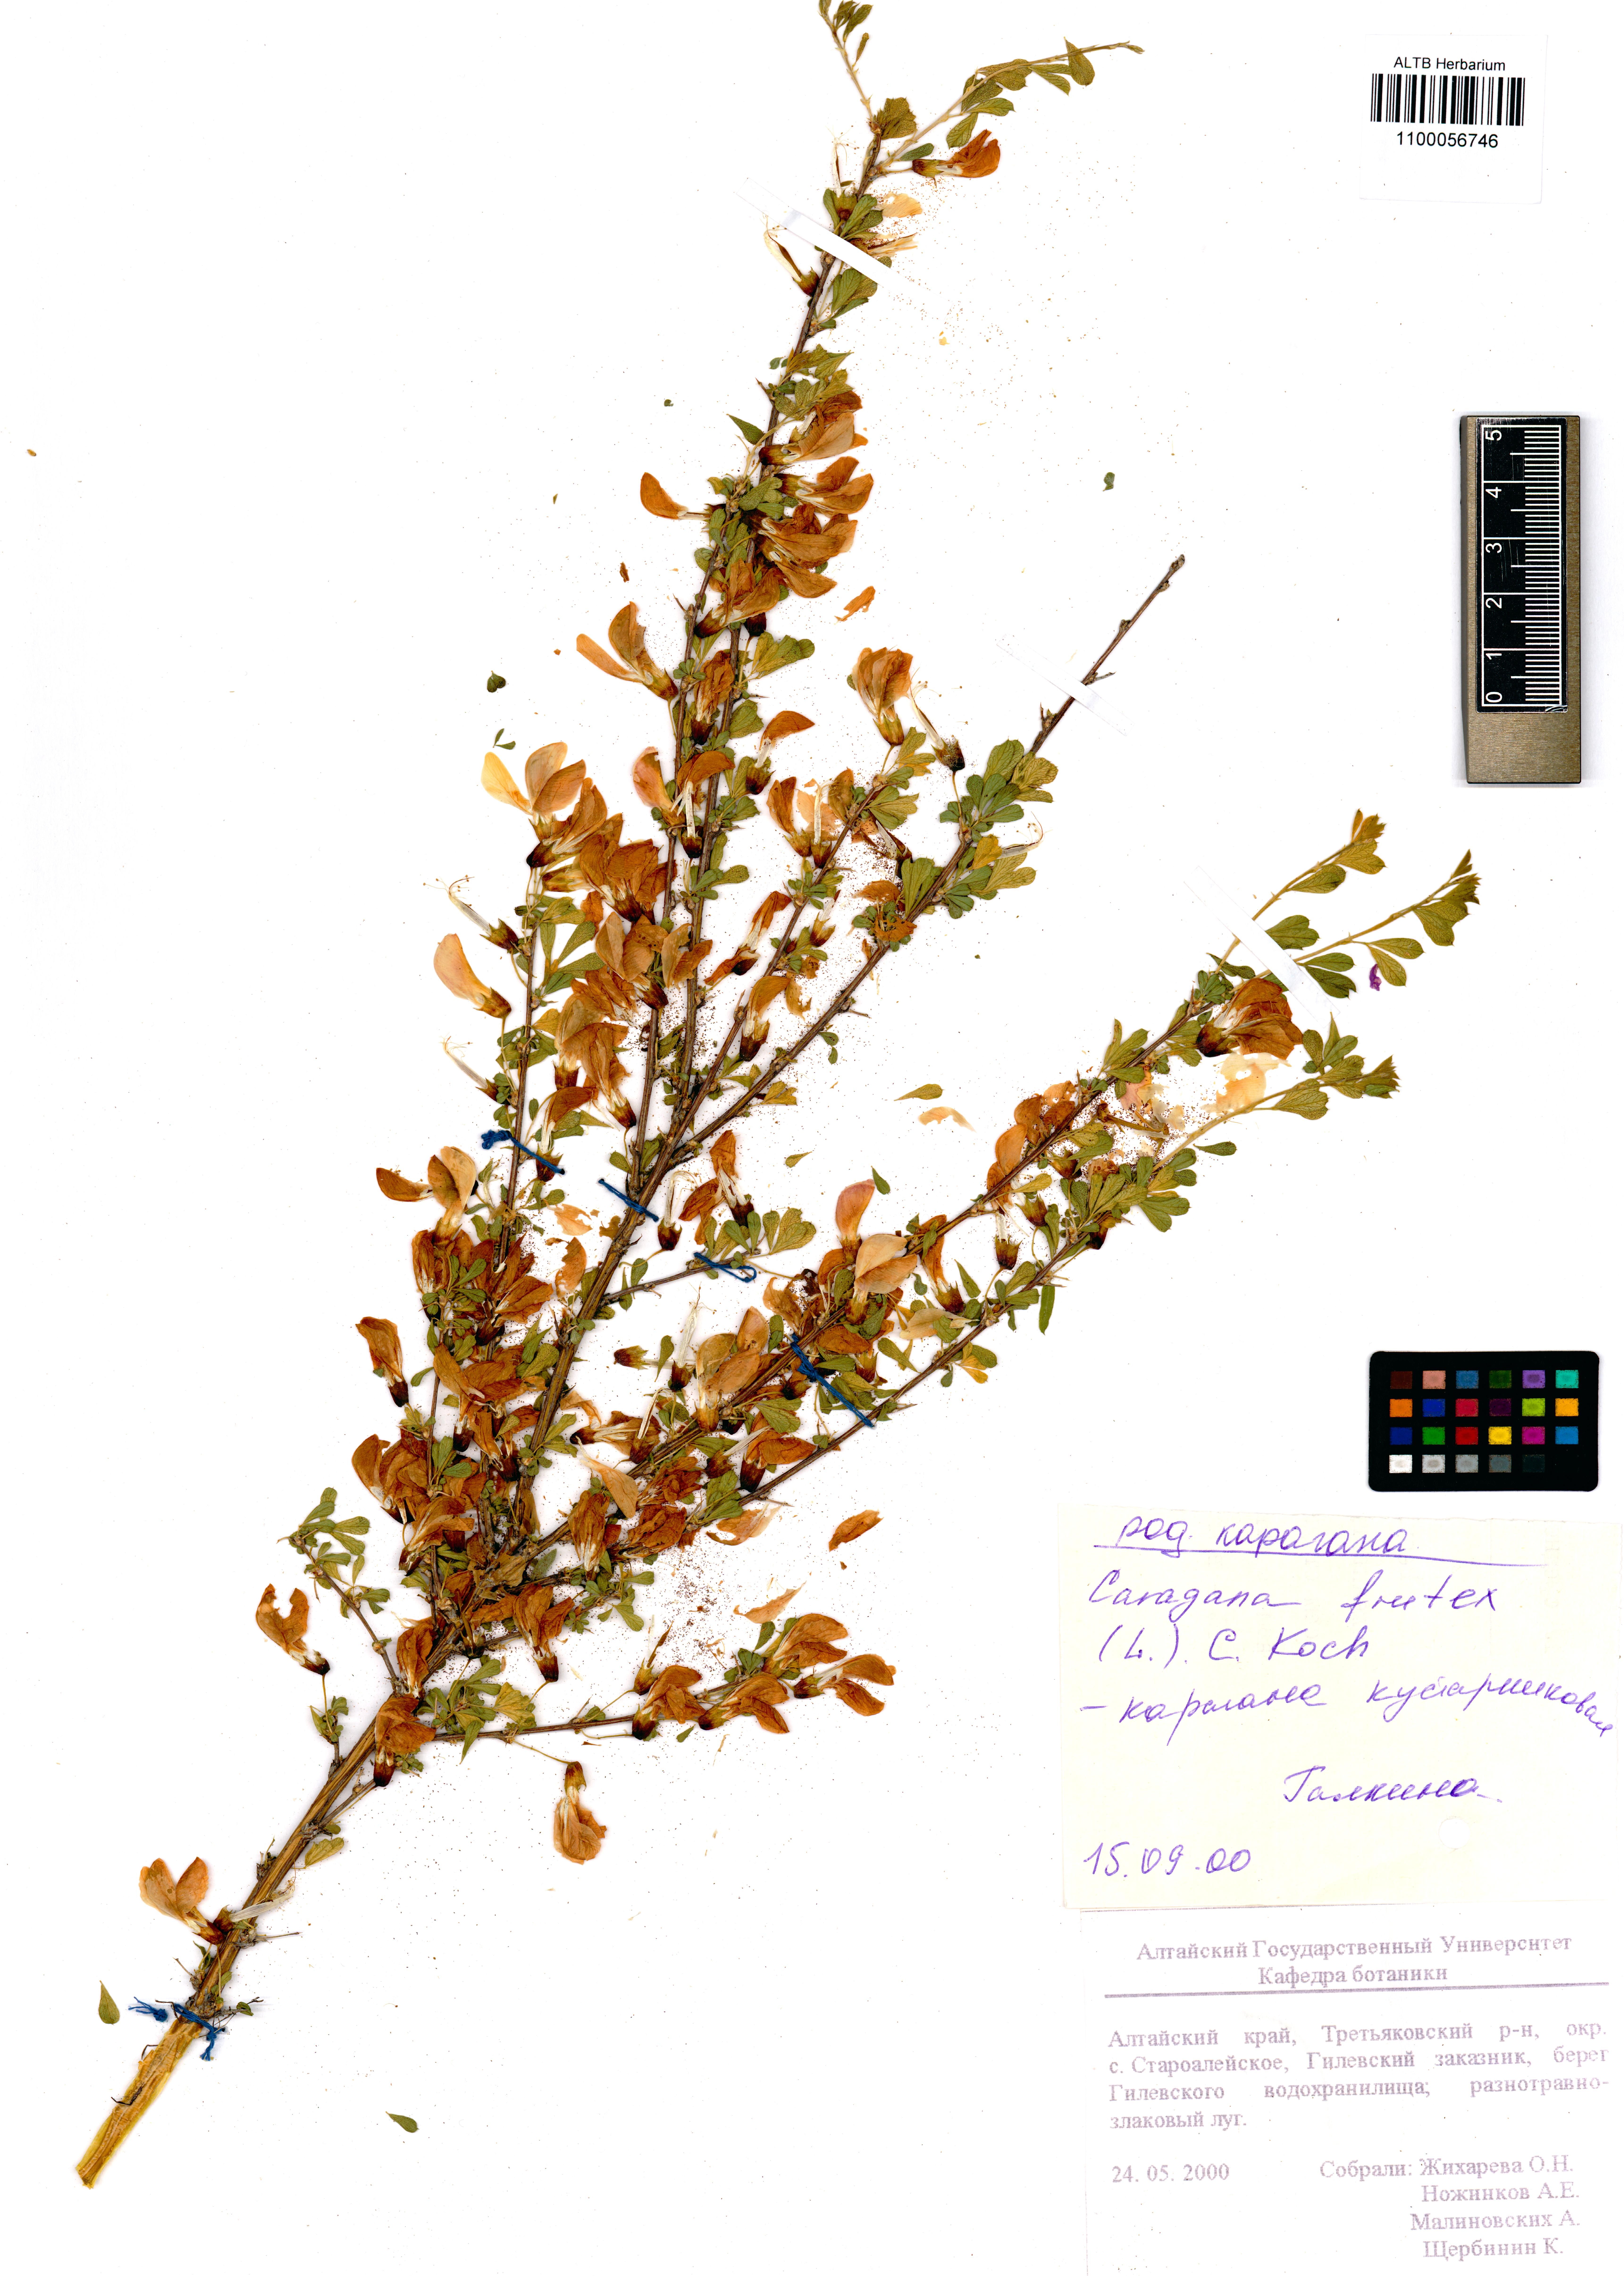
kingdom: Plantae
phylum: Tracheophyta
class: Magnoliopsida
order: Fabales
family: Fabaceae
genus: Caragana
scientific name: Caragana frutex
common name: Russian peashrub
